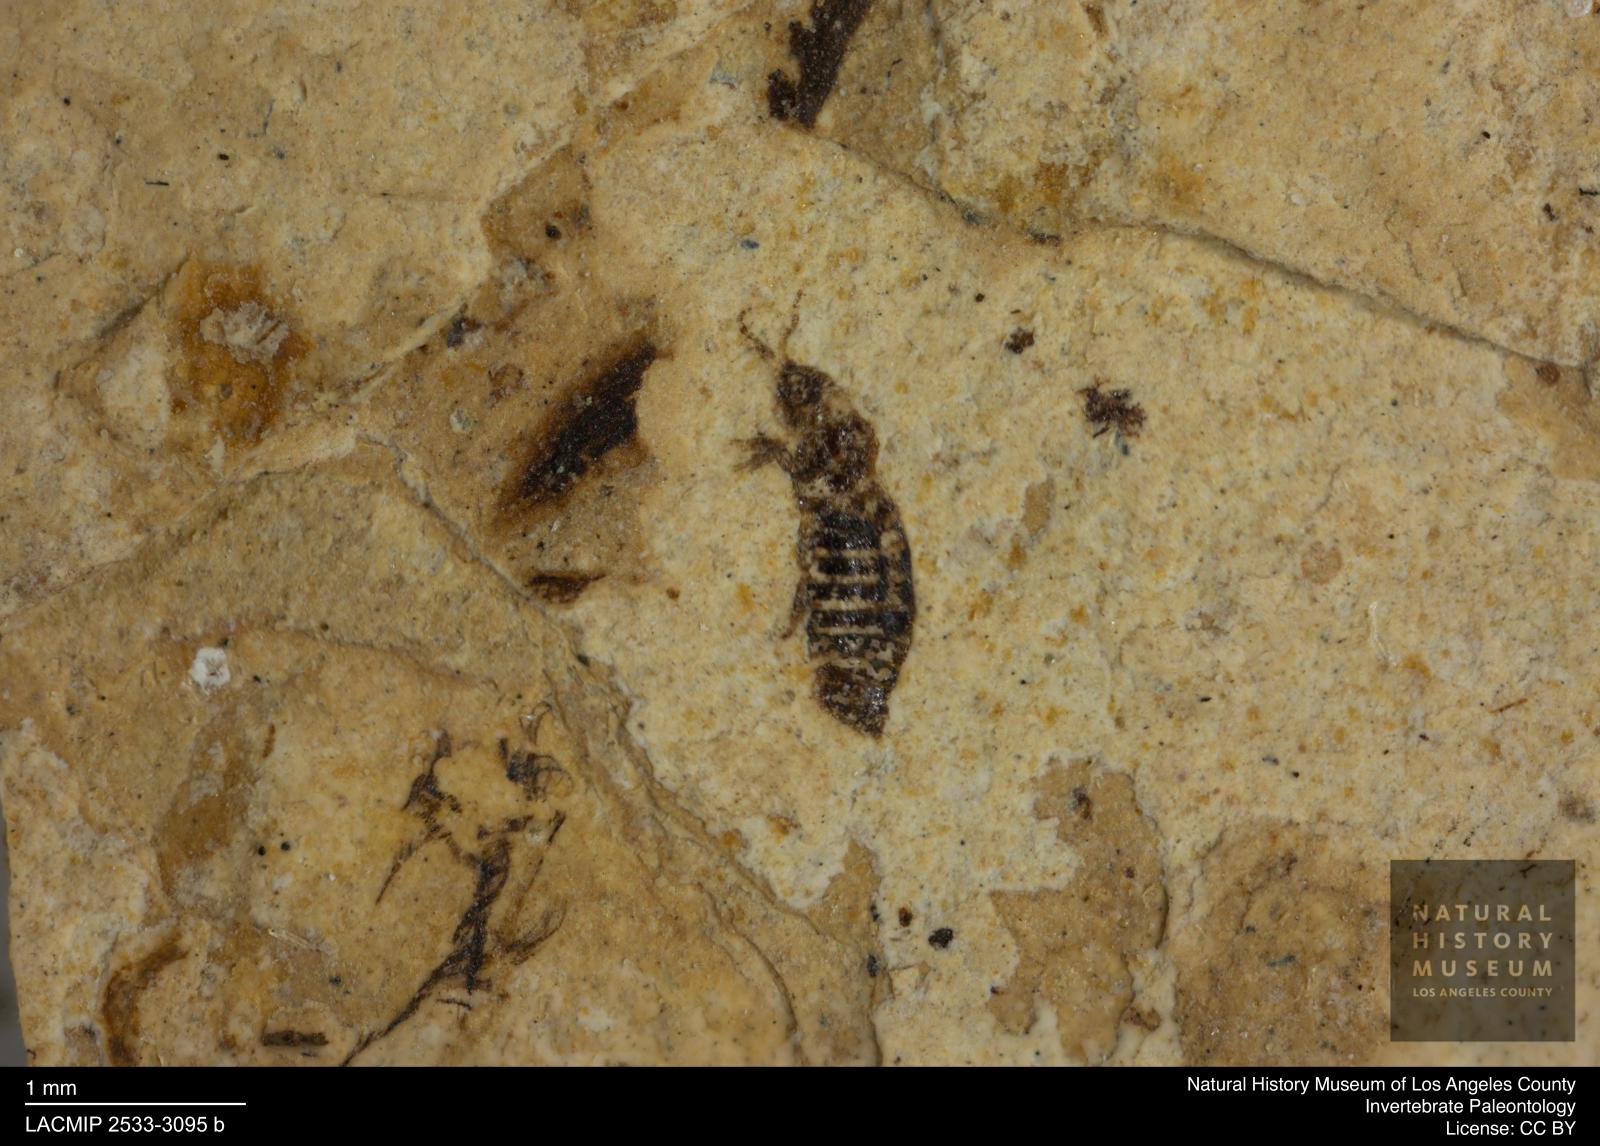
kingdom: Animalia
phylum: Arthropoda
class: Insecta
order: Thysanoptera
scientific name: Thysanoptera
